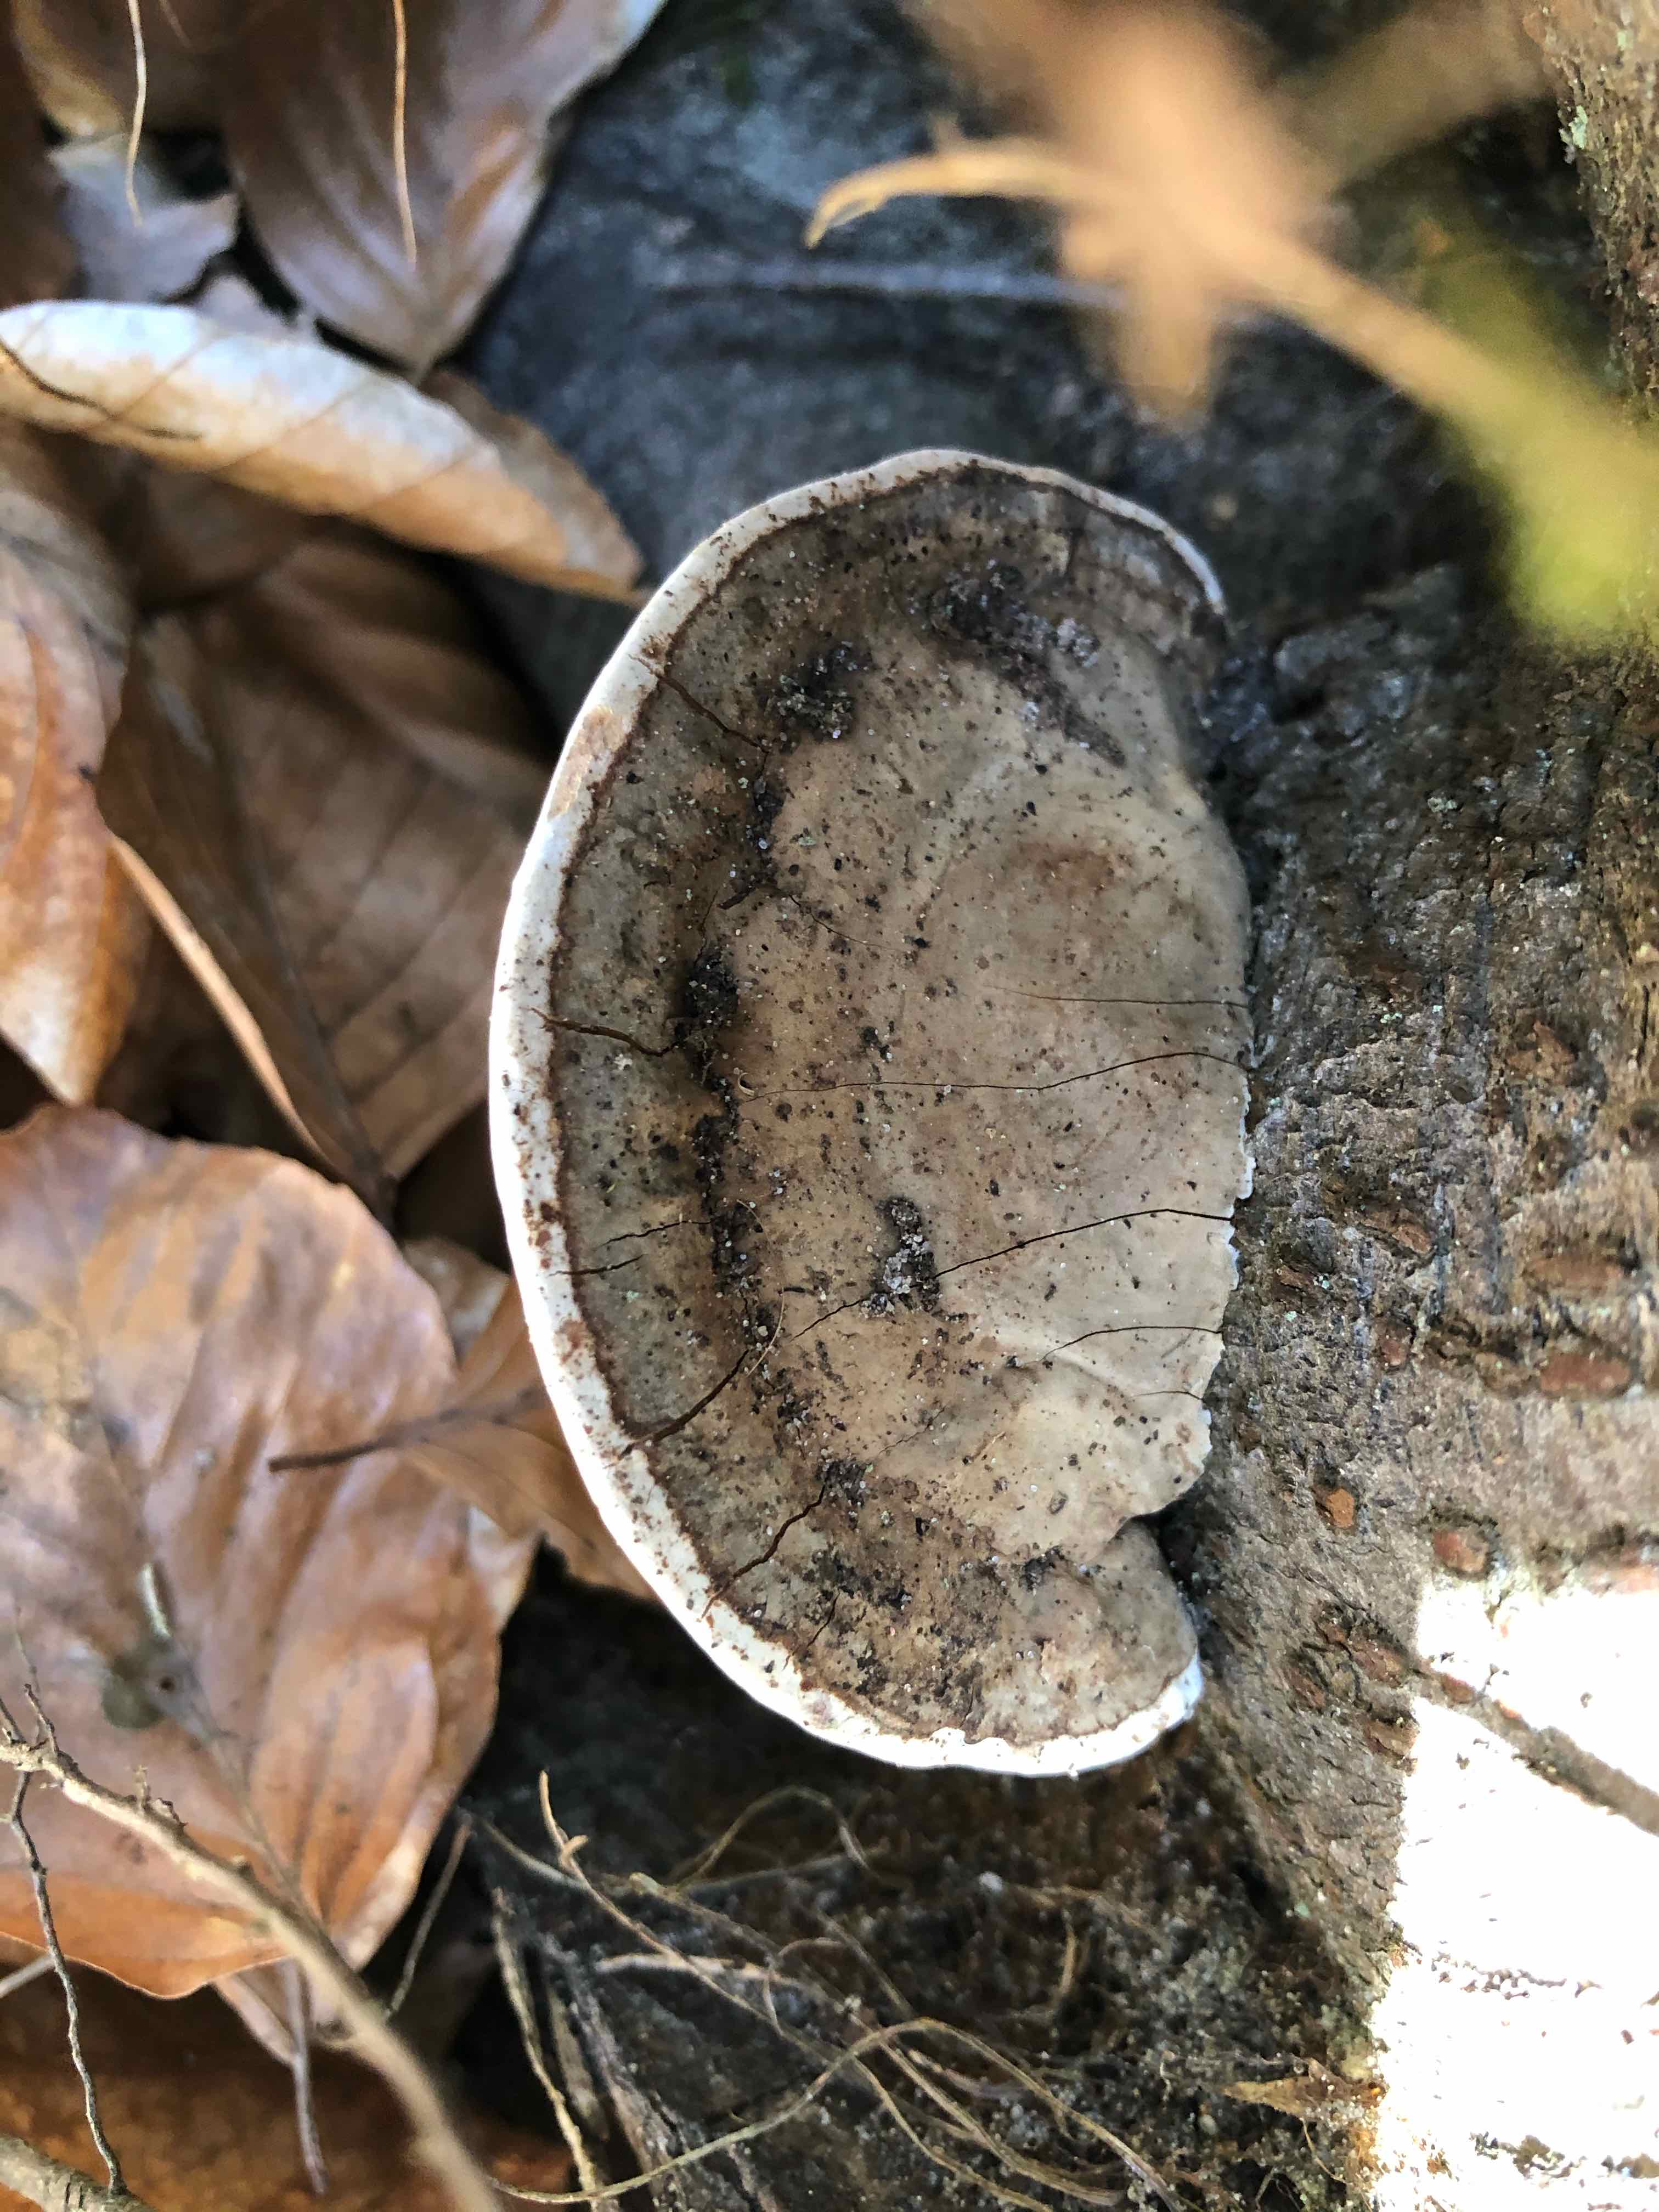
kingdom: Fungi
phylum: Basidiomycota
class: Agaricomycetes
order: Polyporales
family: Polyporaceae
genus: Daedaleopsis
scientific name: Daedaleopsis confragosa
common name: rødmende læderporesvamp
